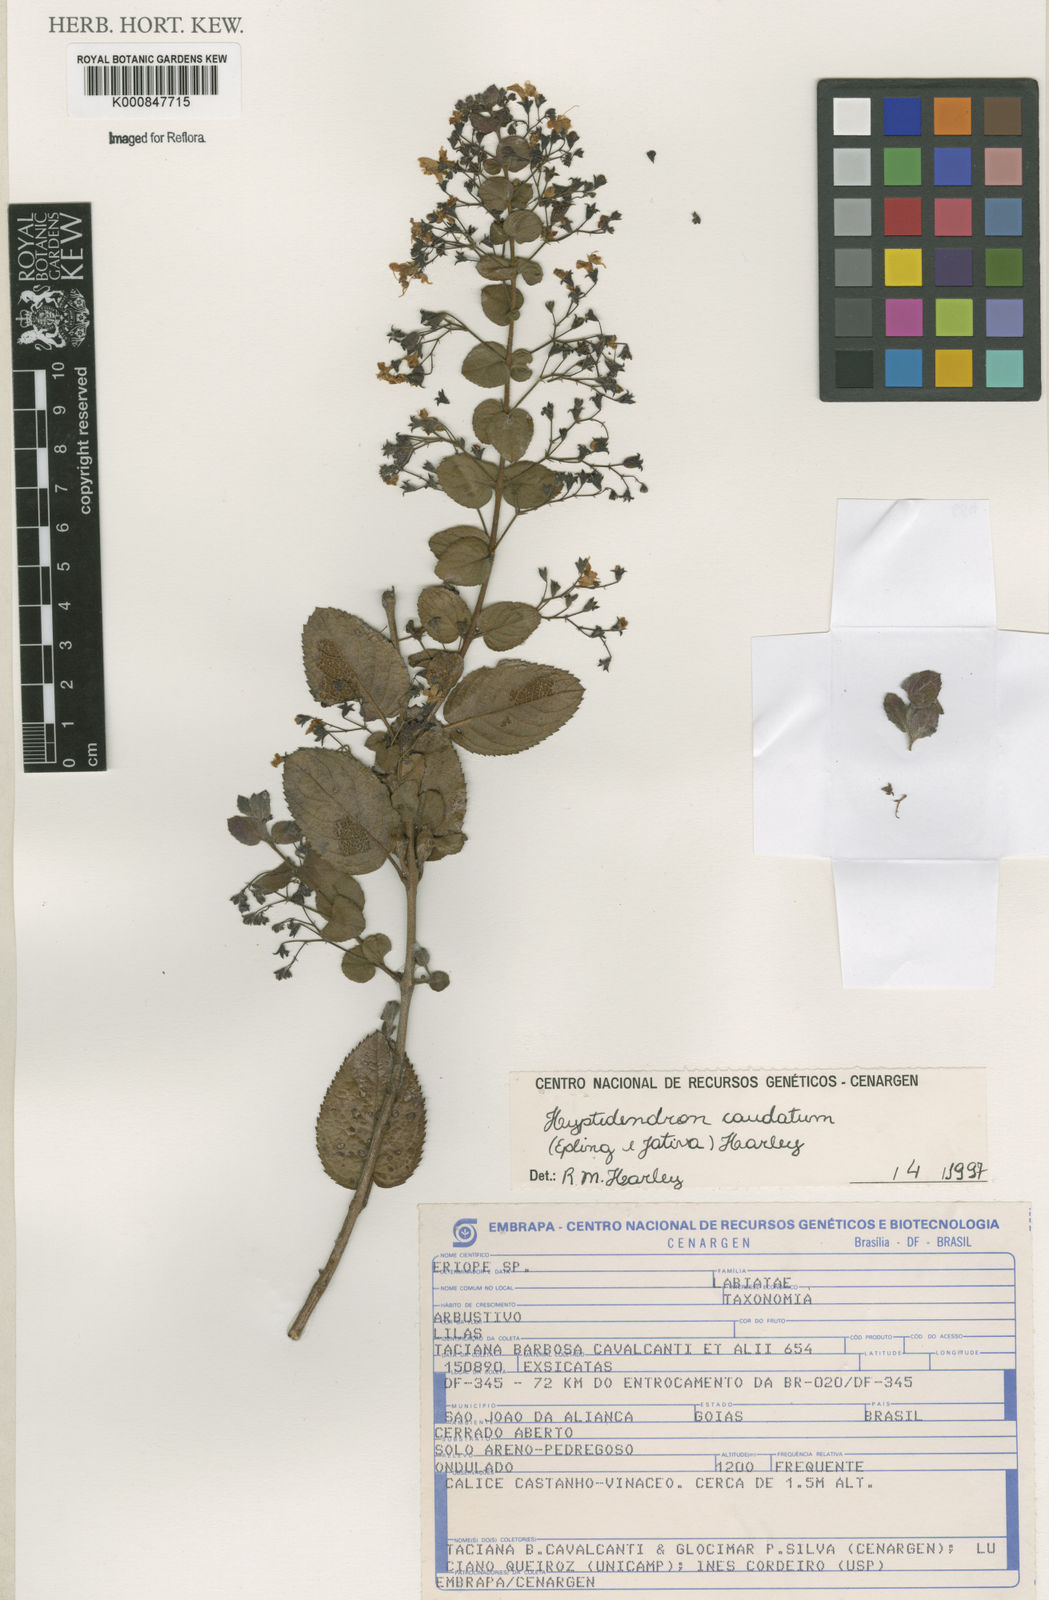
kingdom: Plantae
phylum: Tracheophyta
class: Magnoliopsida
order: Lamiales
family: Lamiaceae
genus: Hyptidendron
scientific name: Hyptidendron
